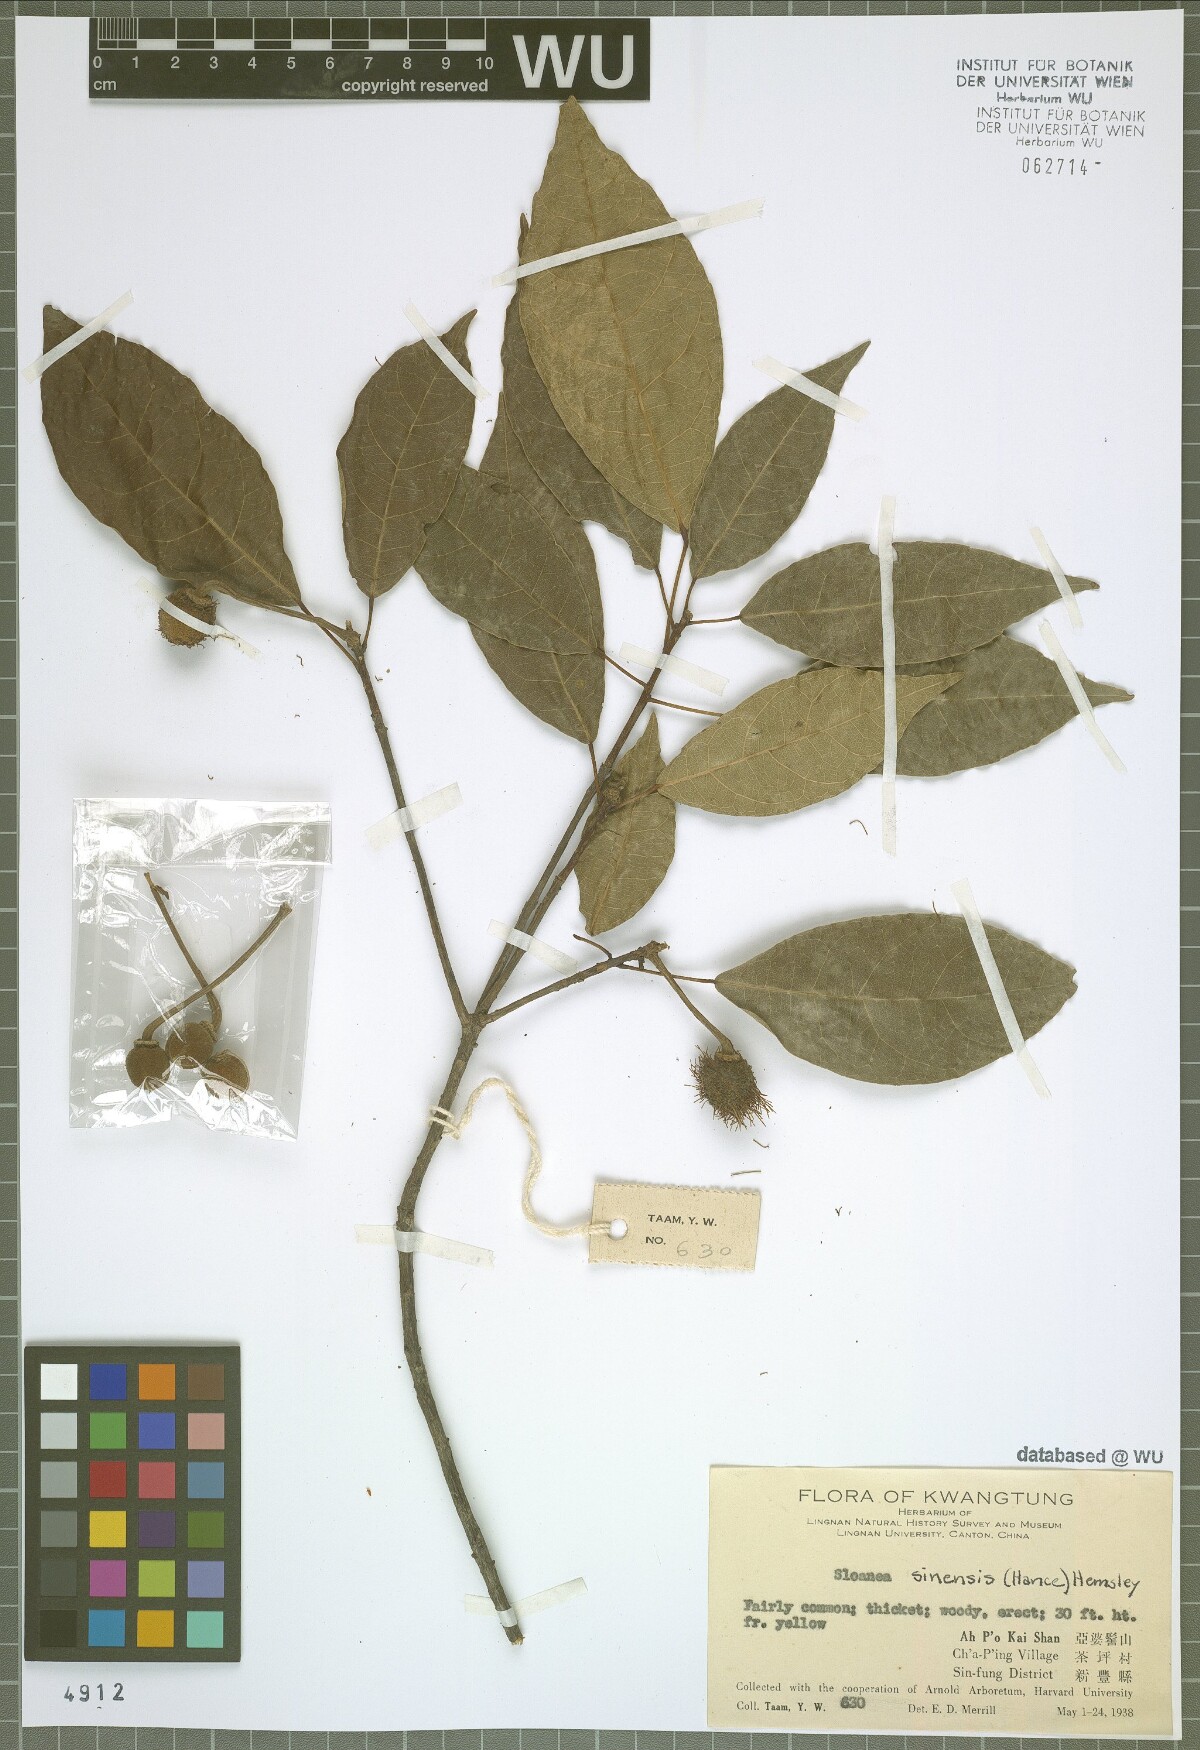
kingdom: Plantae
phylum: Tracheophyta
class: Magnoliopsida
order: Oxalidales
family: Elaeocarpaceae
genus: Sloanea
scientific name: Sloanea sinensis
